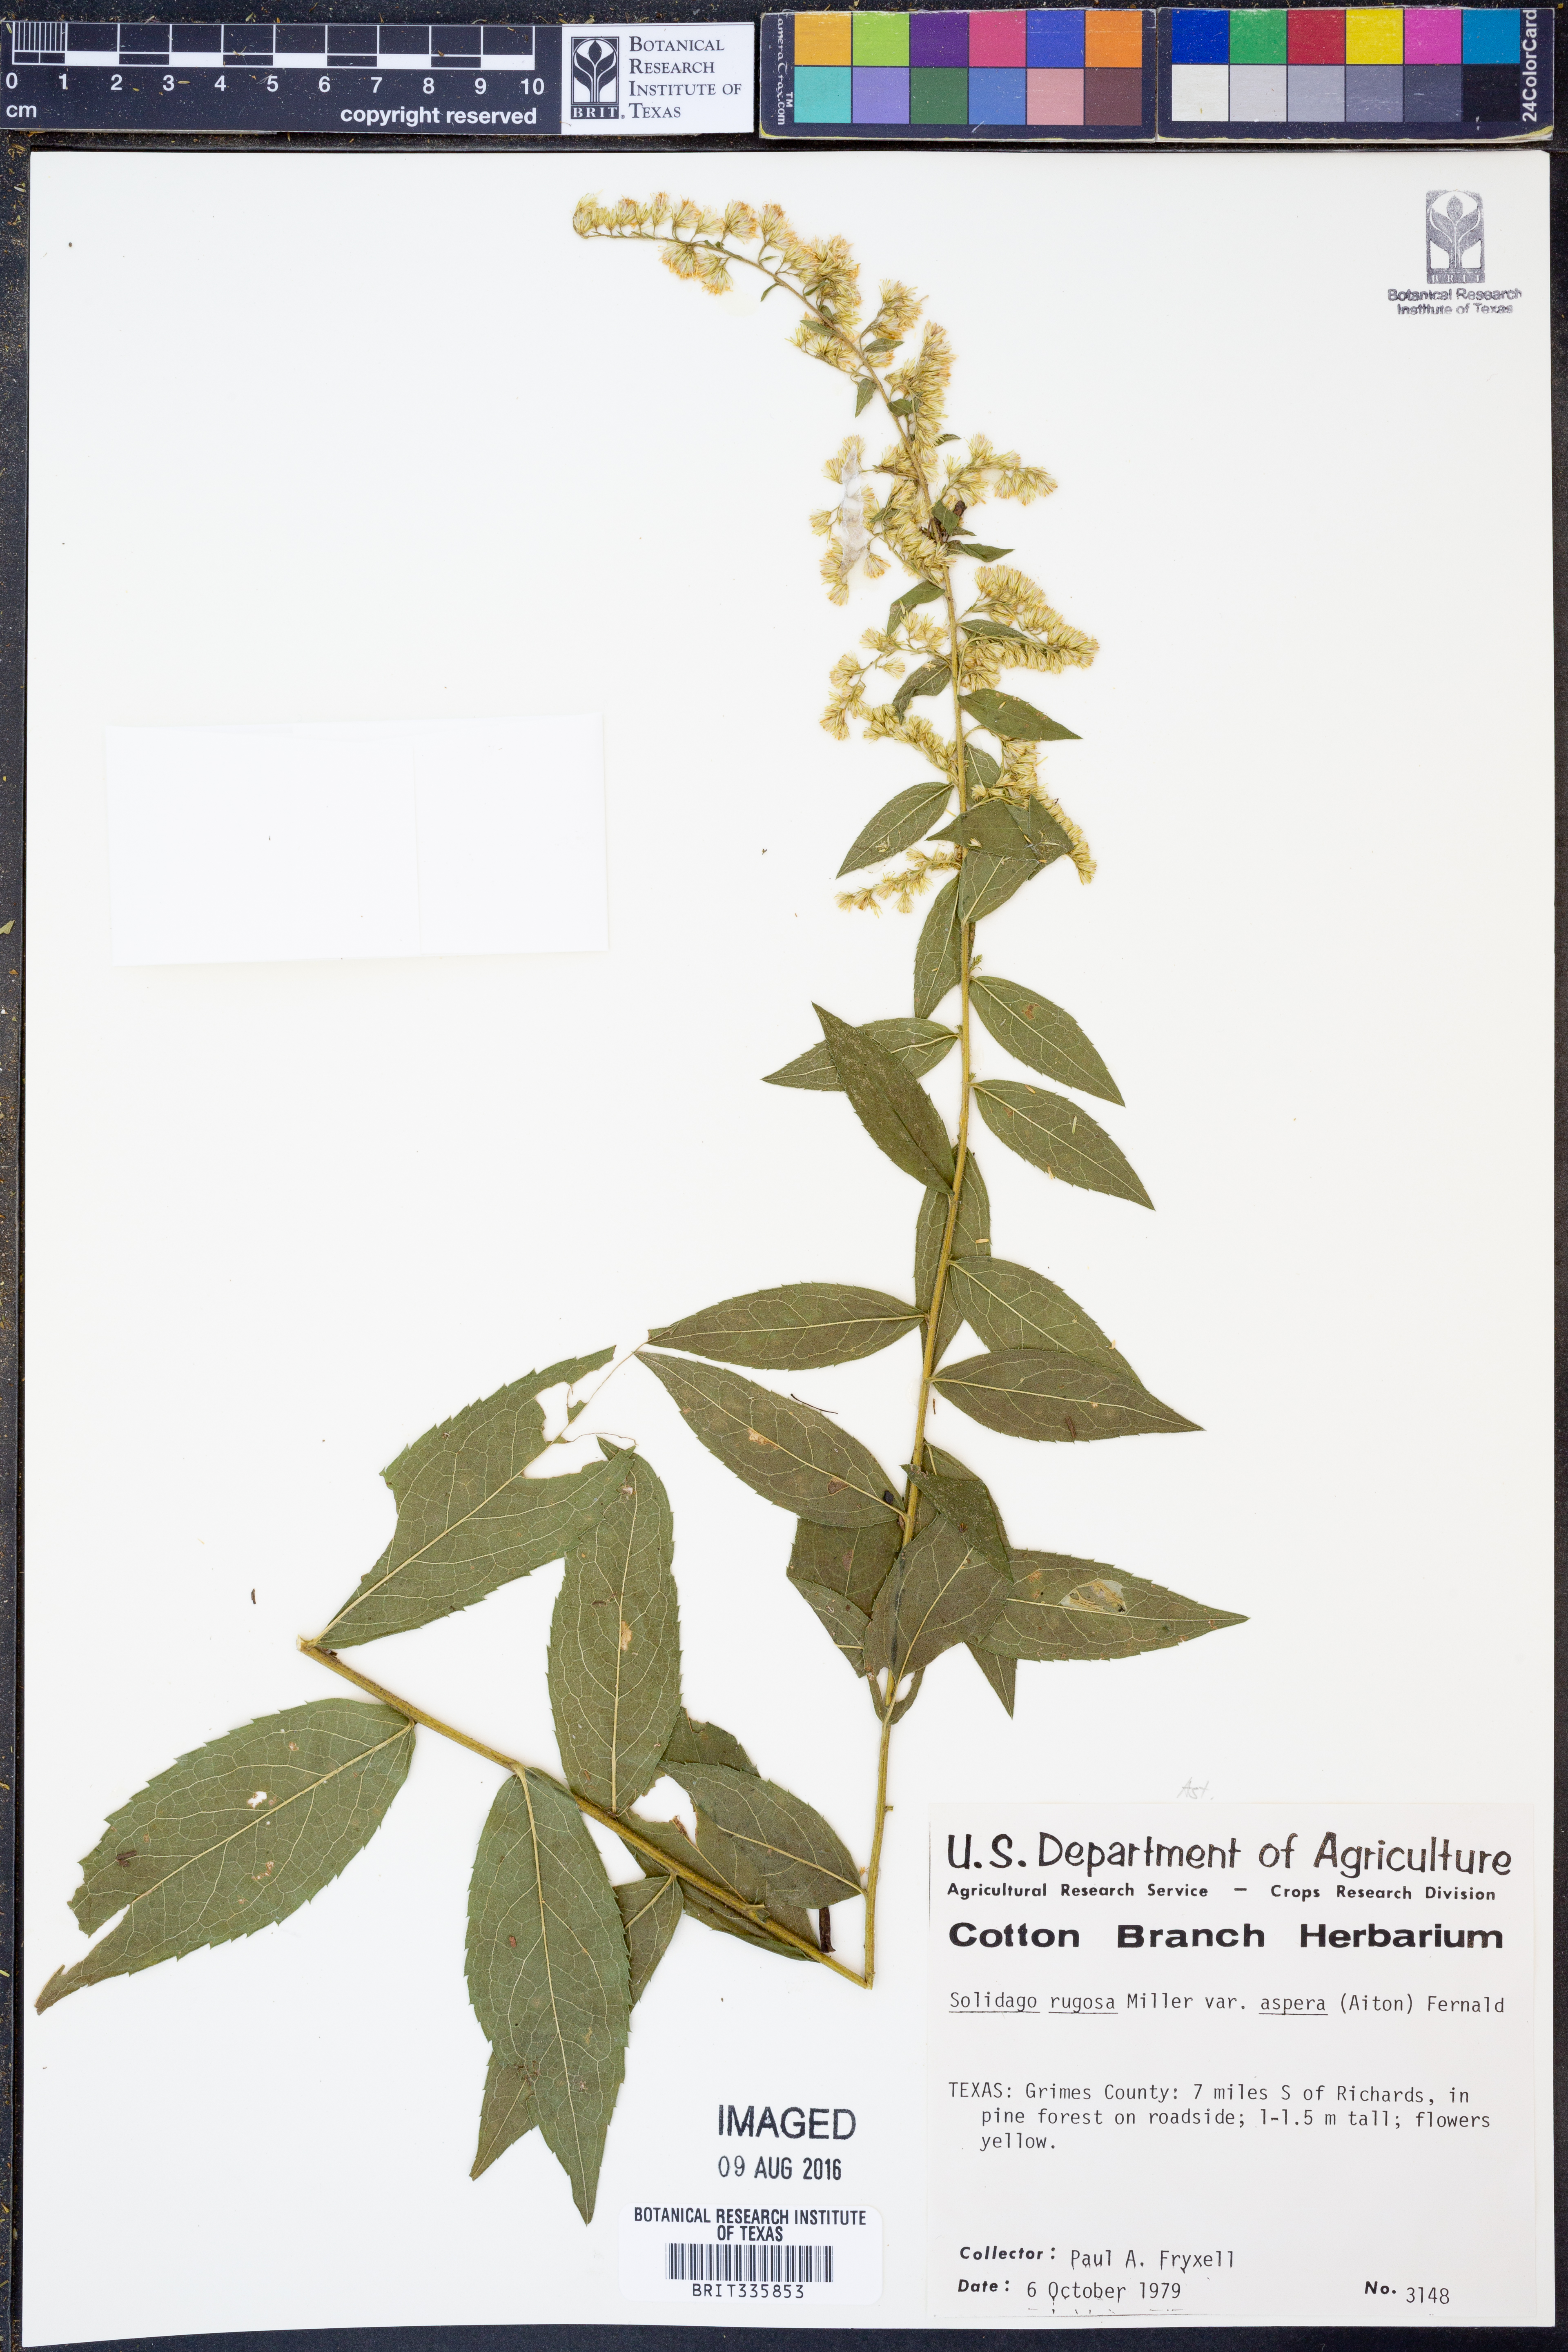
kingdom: Plantae
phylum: Tracheophyta
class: Magnoliopsida
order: Asterales
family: Asteraceae
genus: Solidago
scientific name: Solidago rugosa
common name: Rough-stemmed goldenrod
